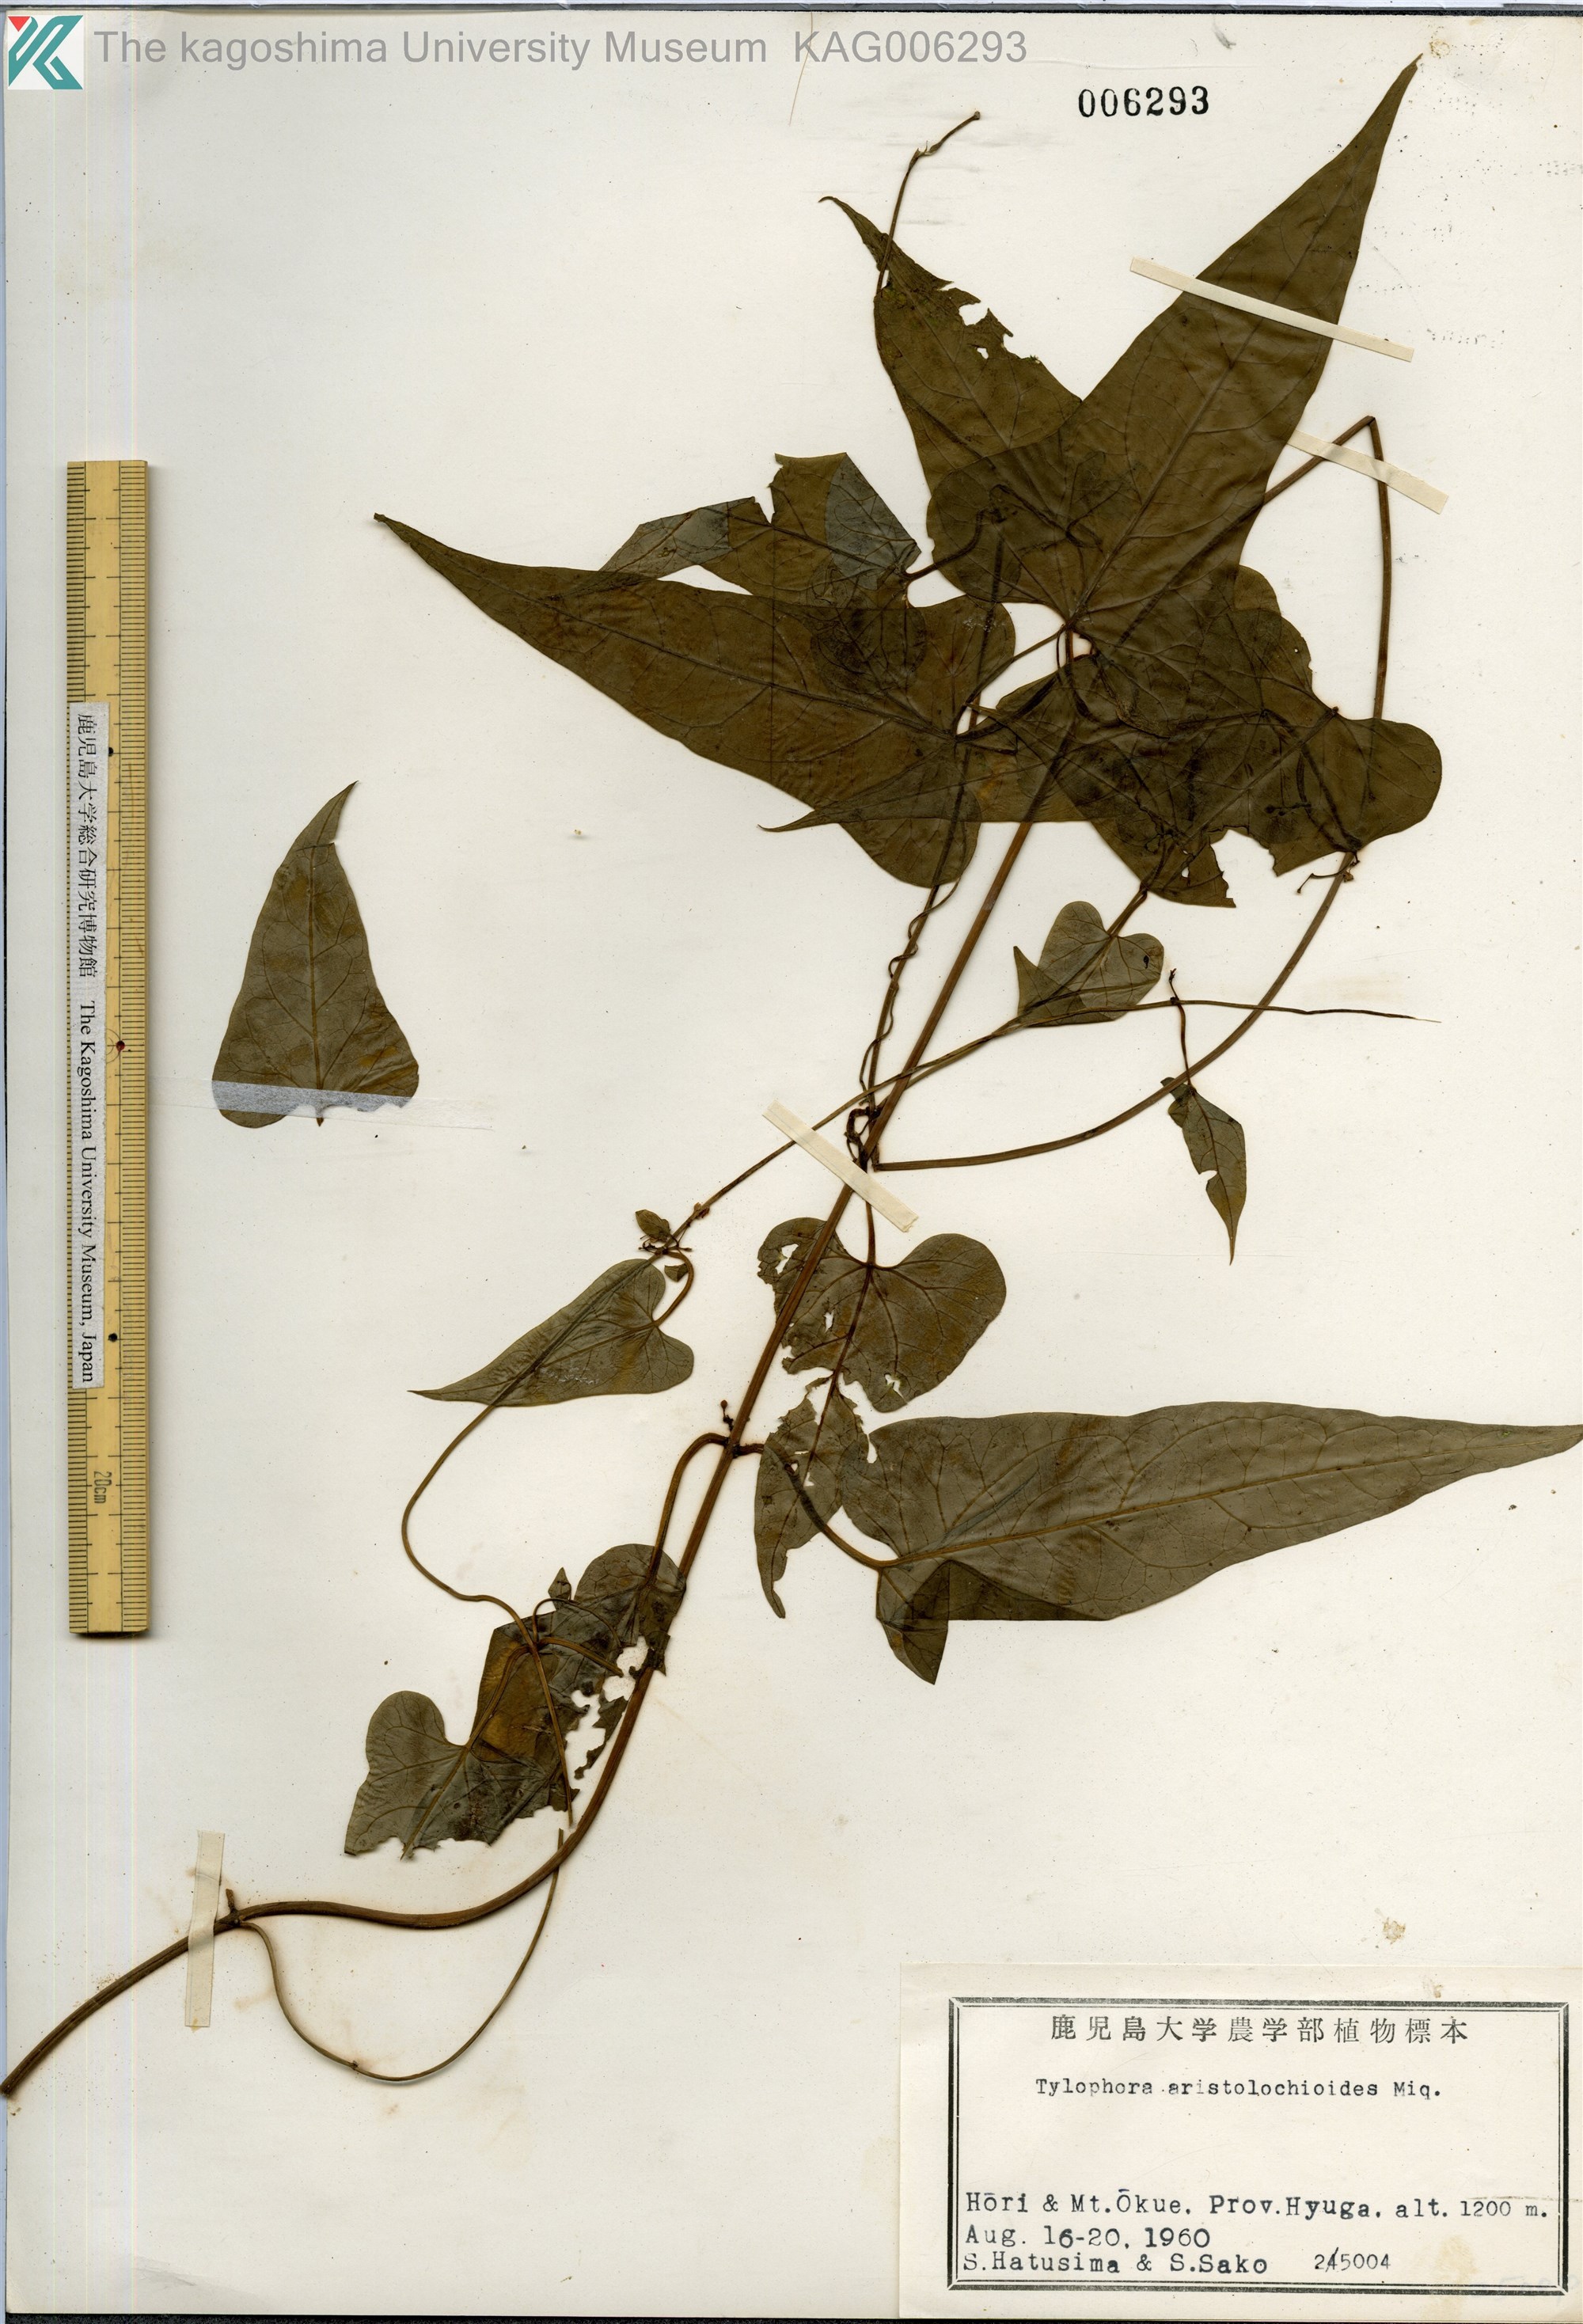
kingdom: Plantae
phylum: Tracheophyta
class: Magnoliopsida
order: Gentianales
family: Apocynaceae
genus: Vincetoxicum
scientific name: Vincetoxicum aristolochioides
